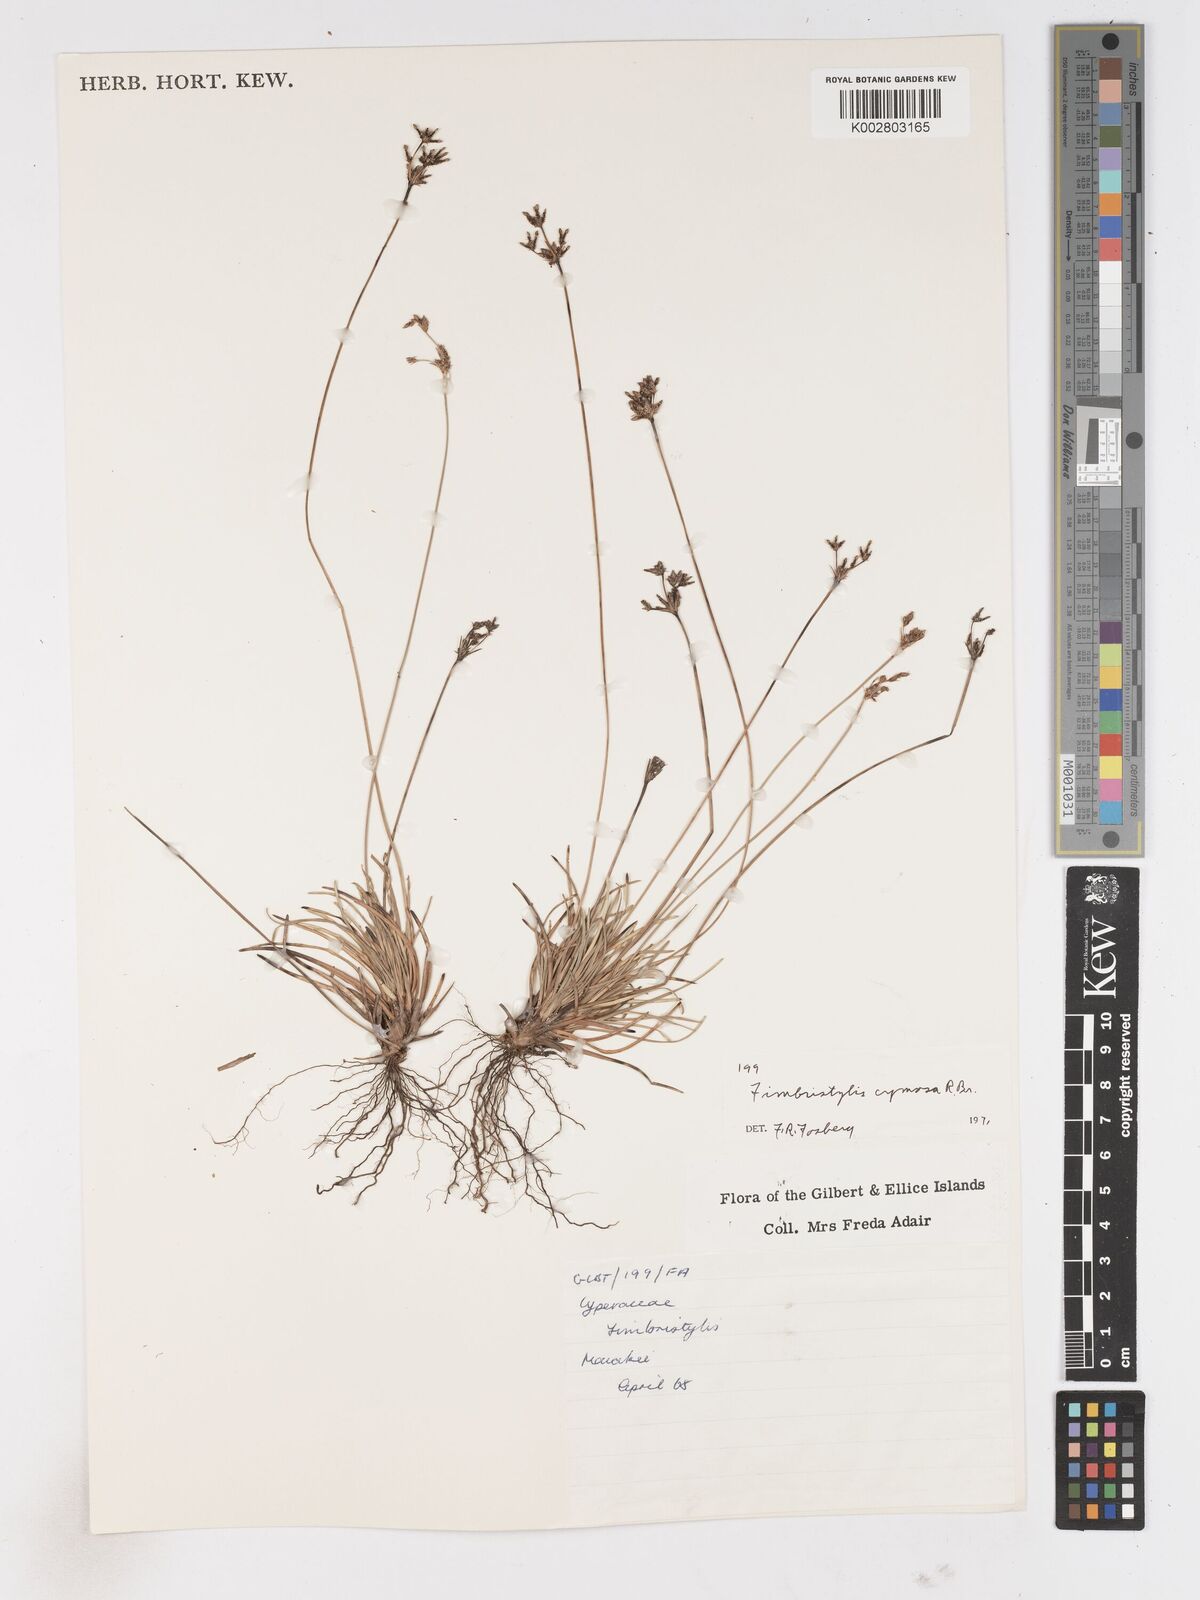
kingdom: Plantae
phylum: Tracheophyta
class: Liliopsida
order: Poales
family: Cyperaceae
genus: Fimbristylis
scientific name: Fimbristylis cymosa
